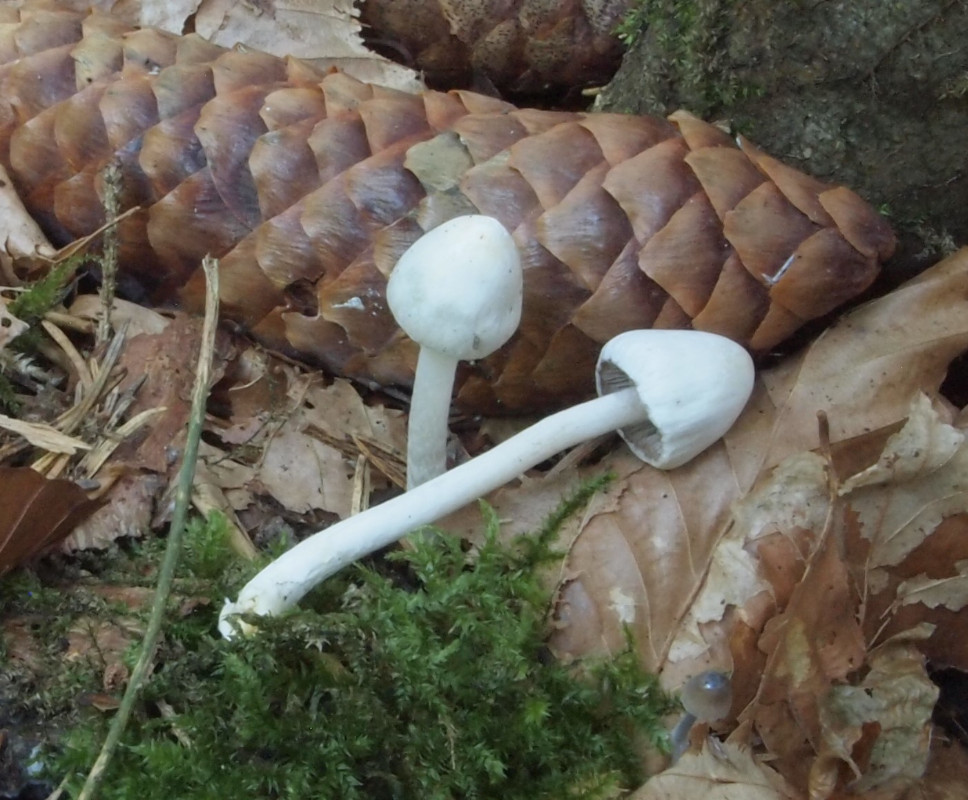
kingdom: Fungi
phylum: Basidiomycota
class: Agaricomycetes
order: Agaricales
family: Inocybaceae
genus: Inocybe
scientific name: Inocybe
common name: almindelig trævlhat
